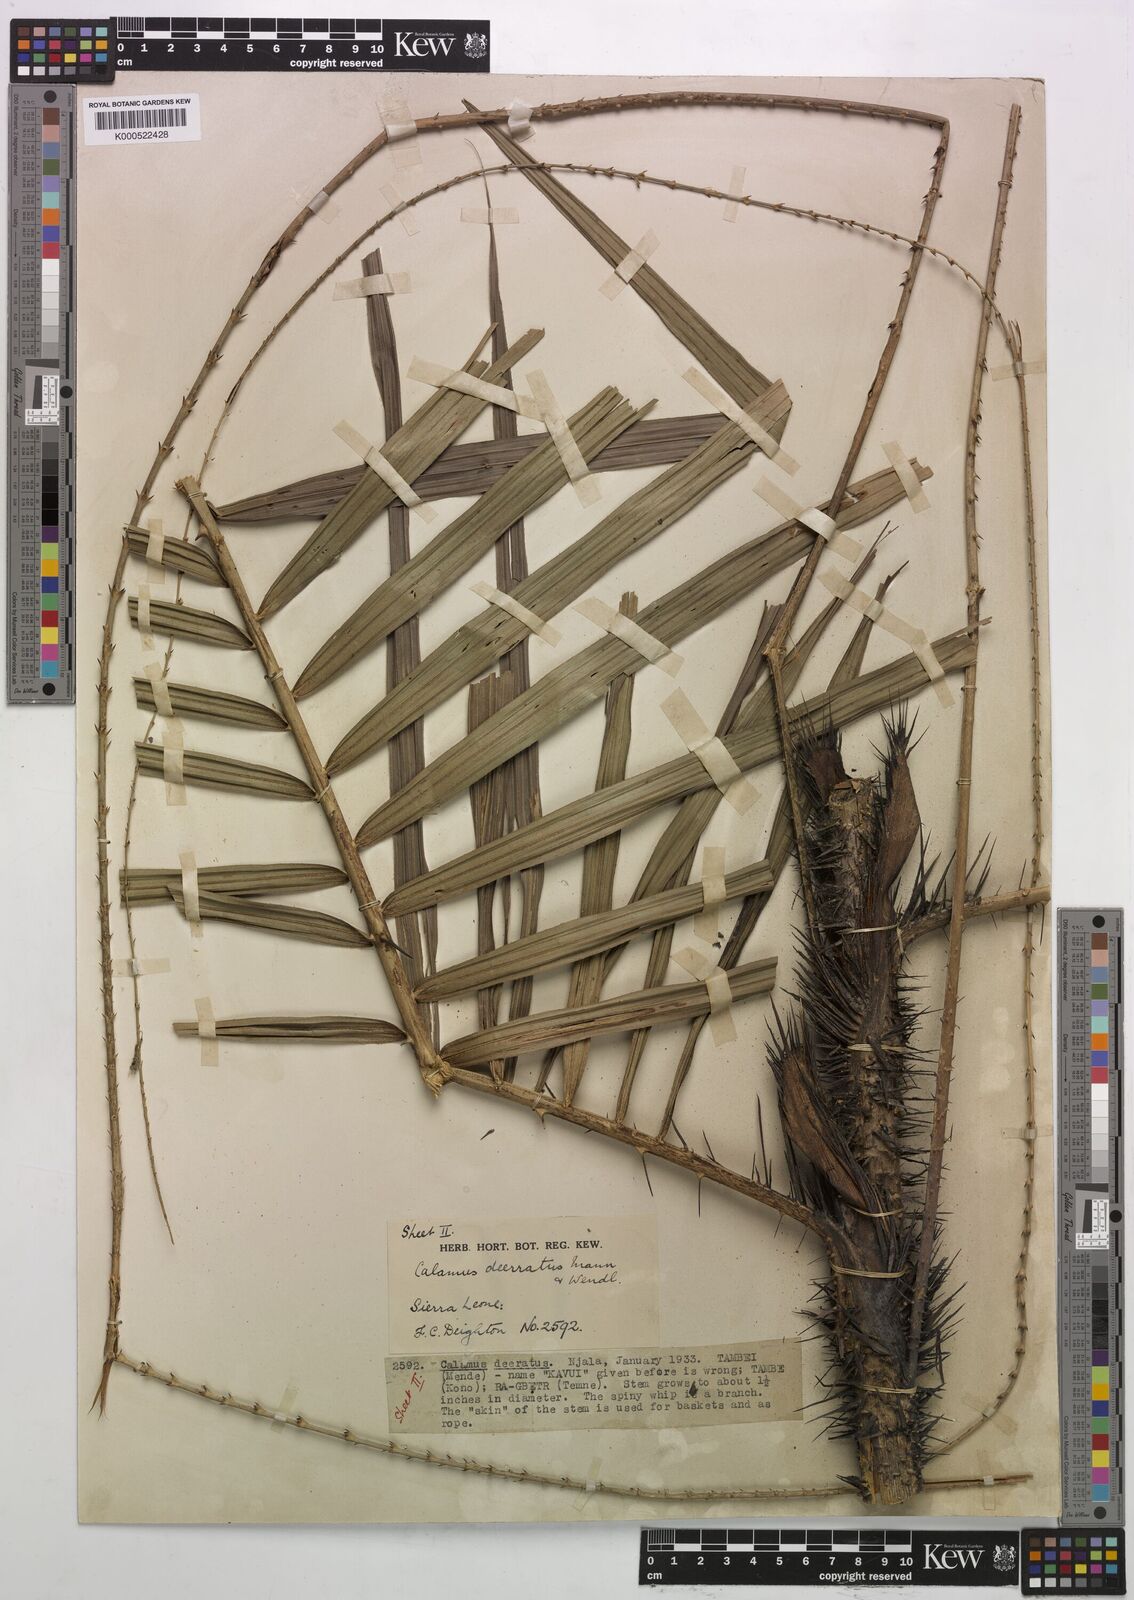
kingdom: Plantae
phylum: Tracheophyta
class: Liliopsida
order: Arecales
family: Arecaceae
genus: Calamus
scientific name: Calamus deerratus
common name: Rattan
